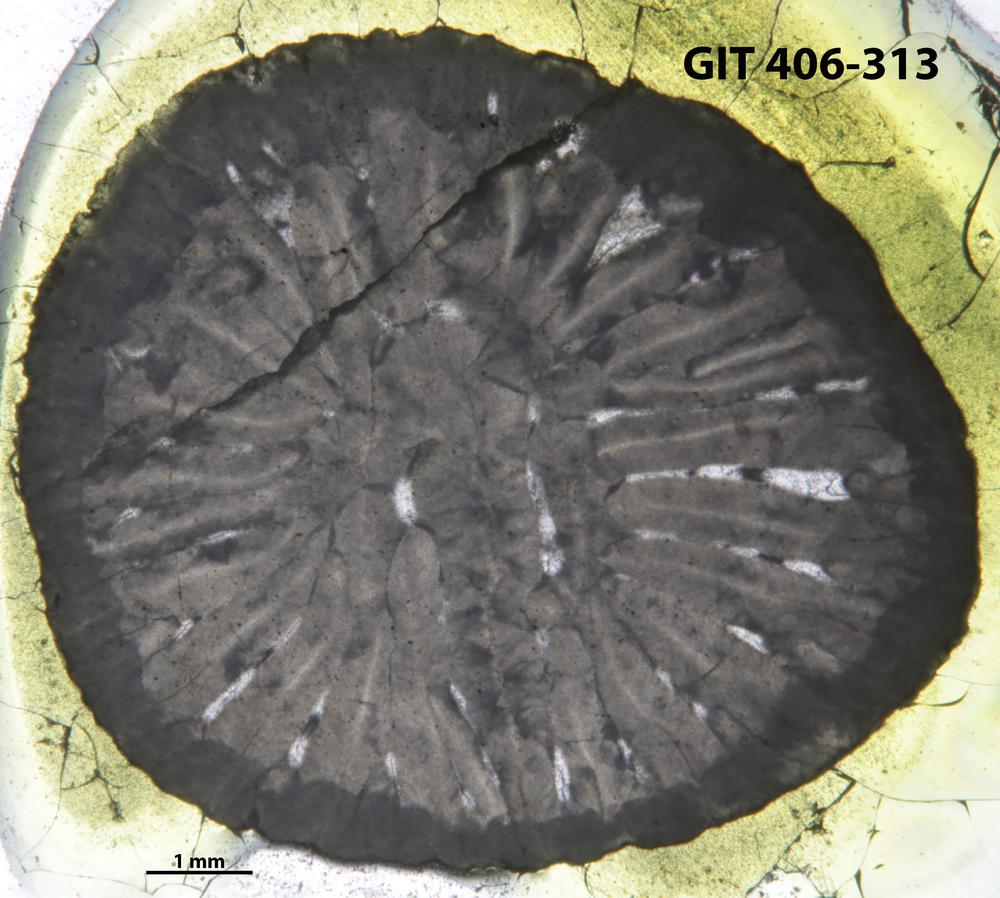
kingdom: Animalia
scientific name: Animalia
